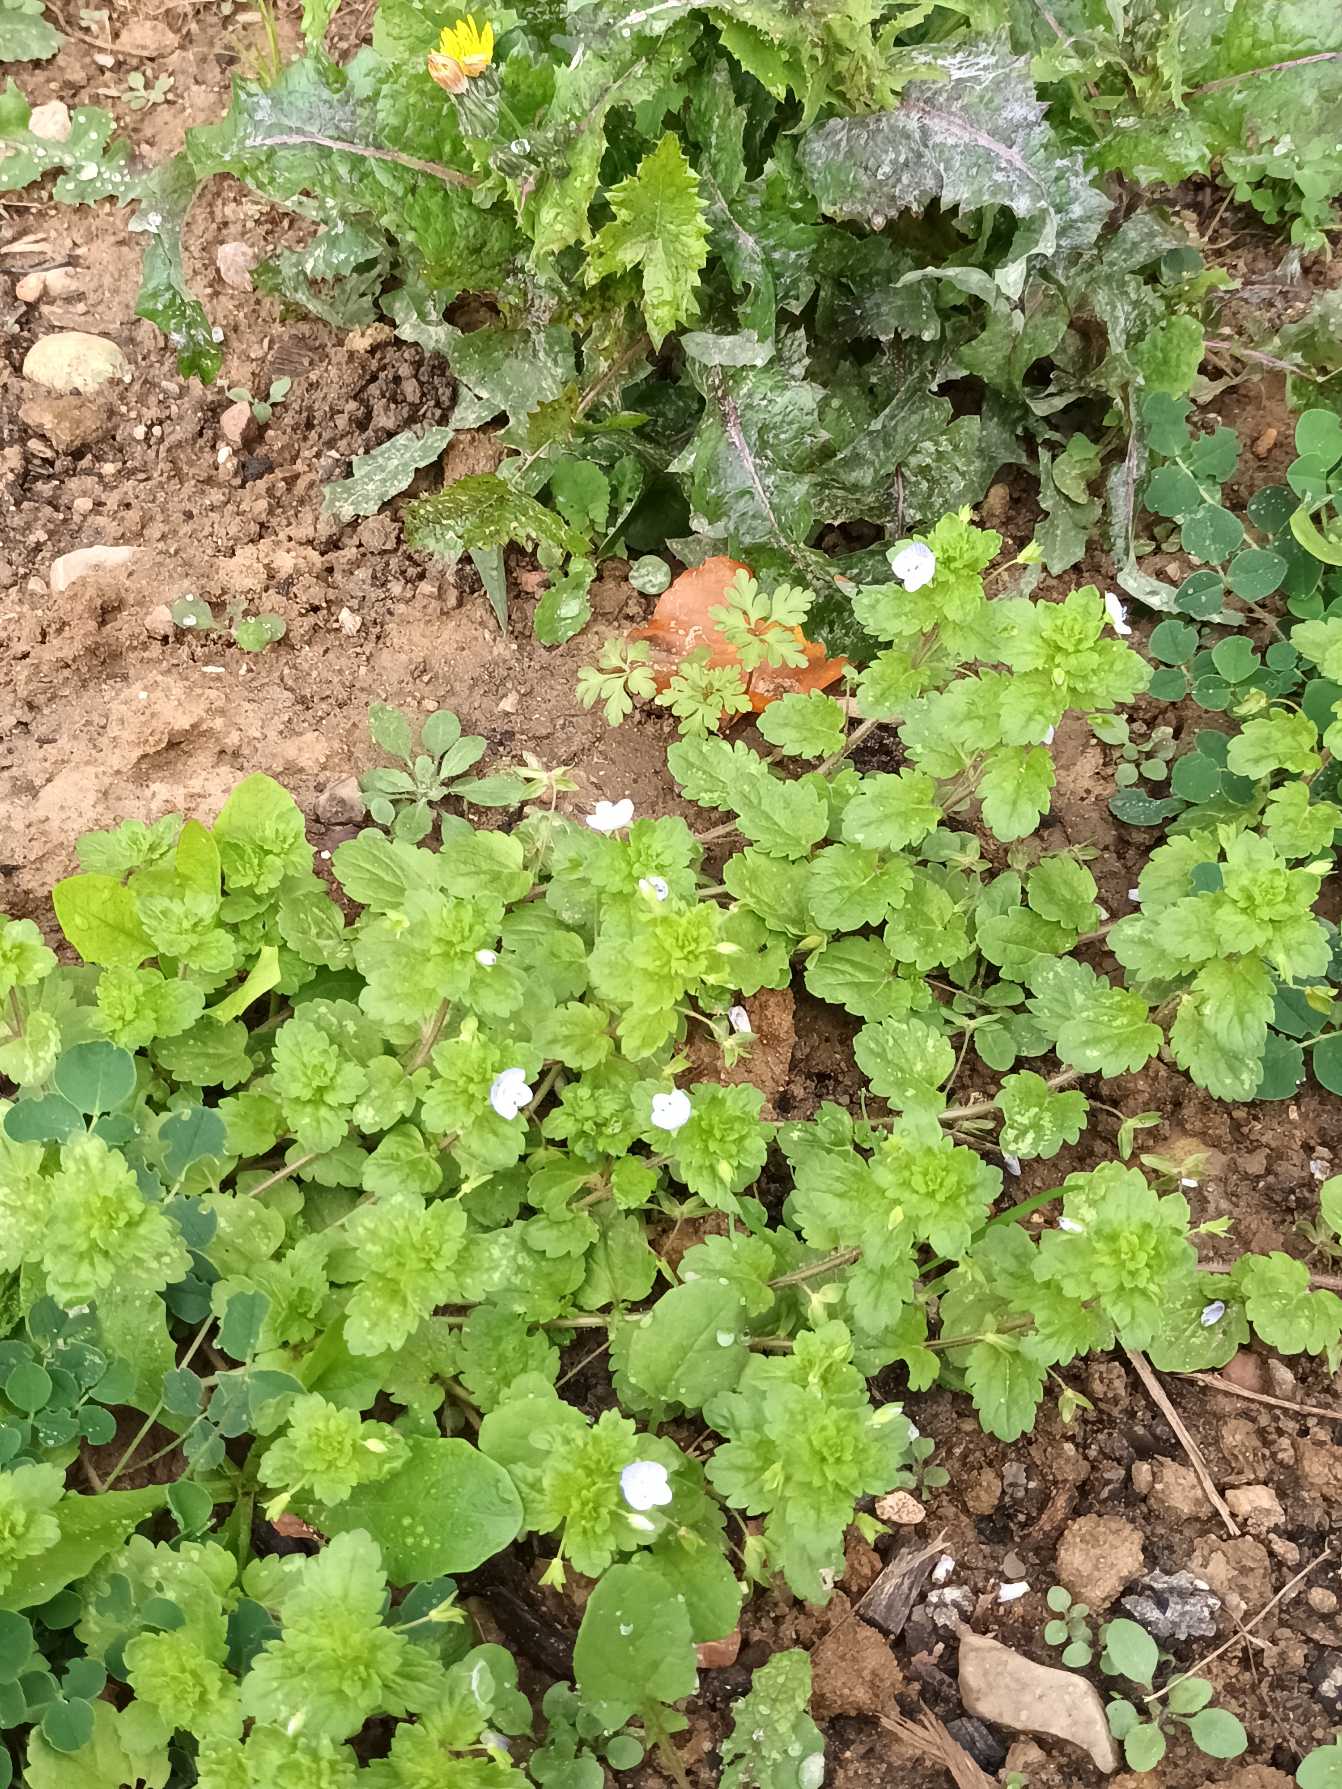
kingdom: Plantae
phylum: Tracheophyta
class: Magnoliopsida
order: Lamiales
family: Plantaginaceae
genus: Veronica
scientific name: Veronica persica
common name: Storkronet ærenpris
